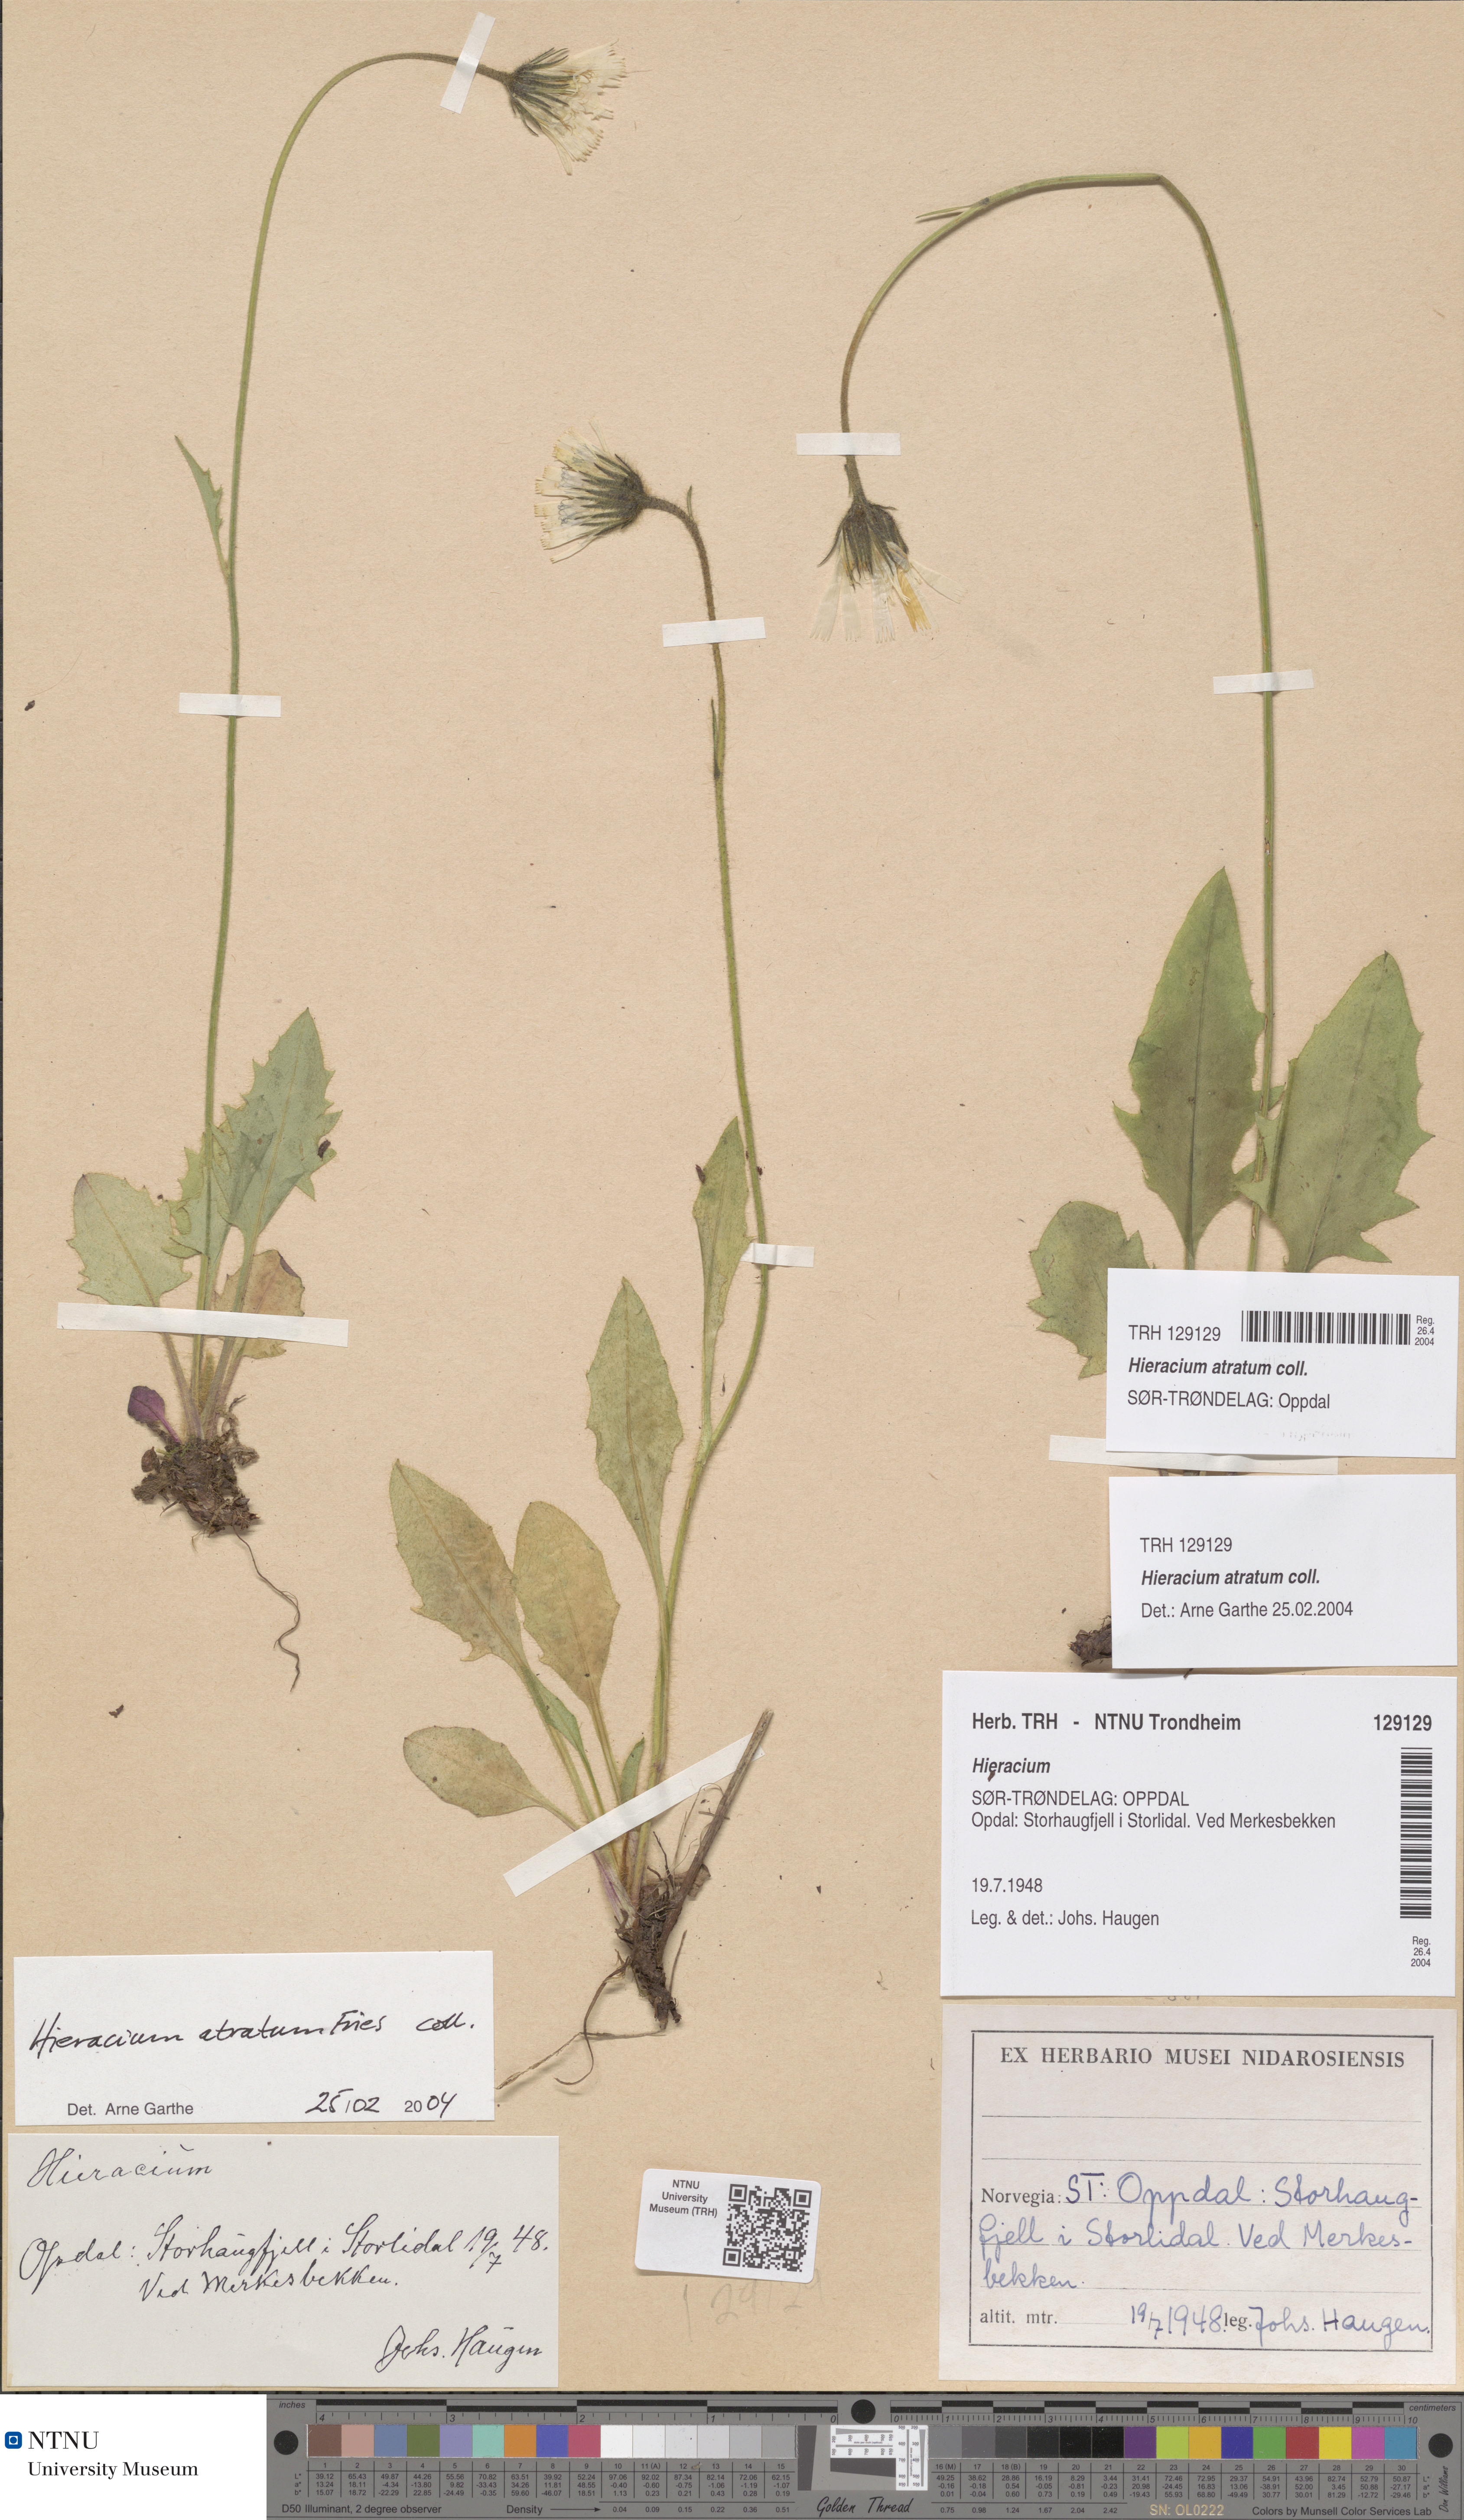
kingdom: Plantae
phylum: Tracheophyta
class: Magnoliopsida
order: Asterales
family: Asteraceae
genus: Hieracium
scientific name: Hieracium atratum
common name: Polar hawkweed
